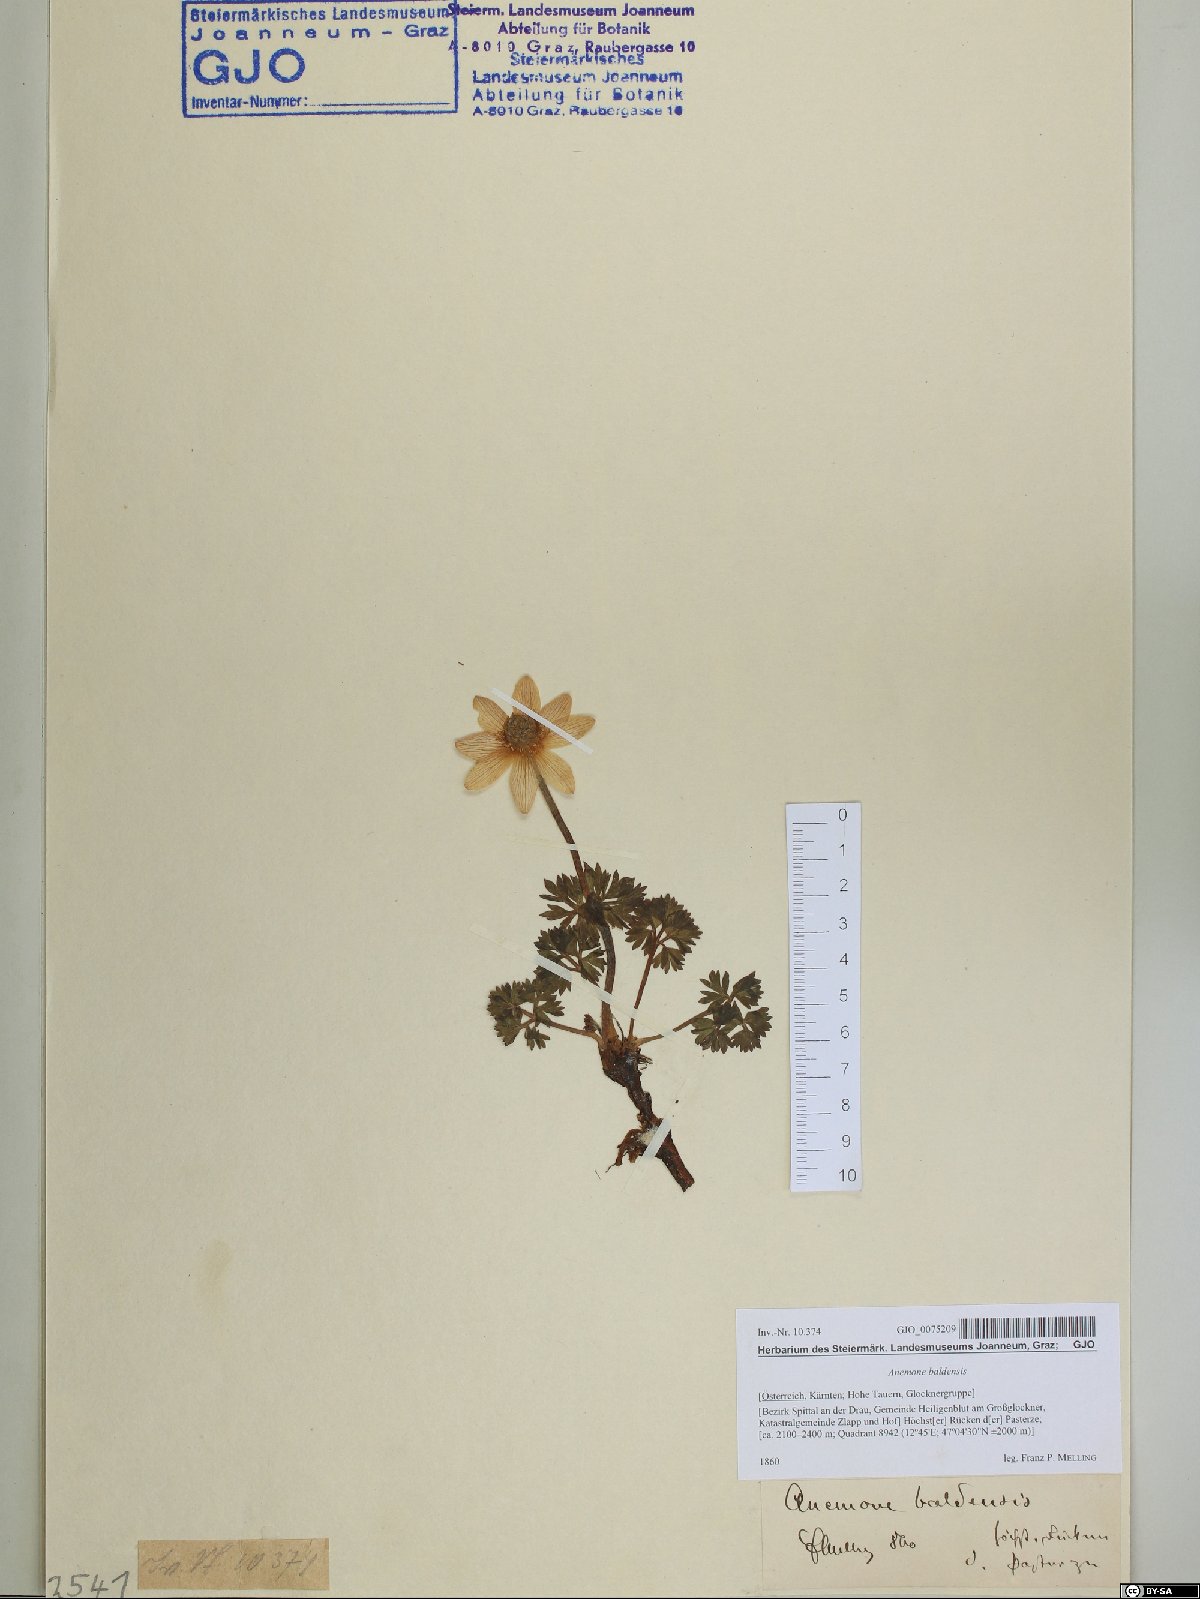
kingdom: Plantae
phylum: Tracheophyta
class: Magnoliopsida
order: Ranunculales
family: Ranunculaceae
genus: Anemone
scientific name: Anemone baldensis
